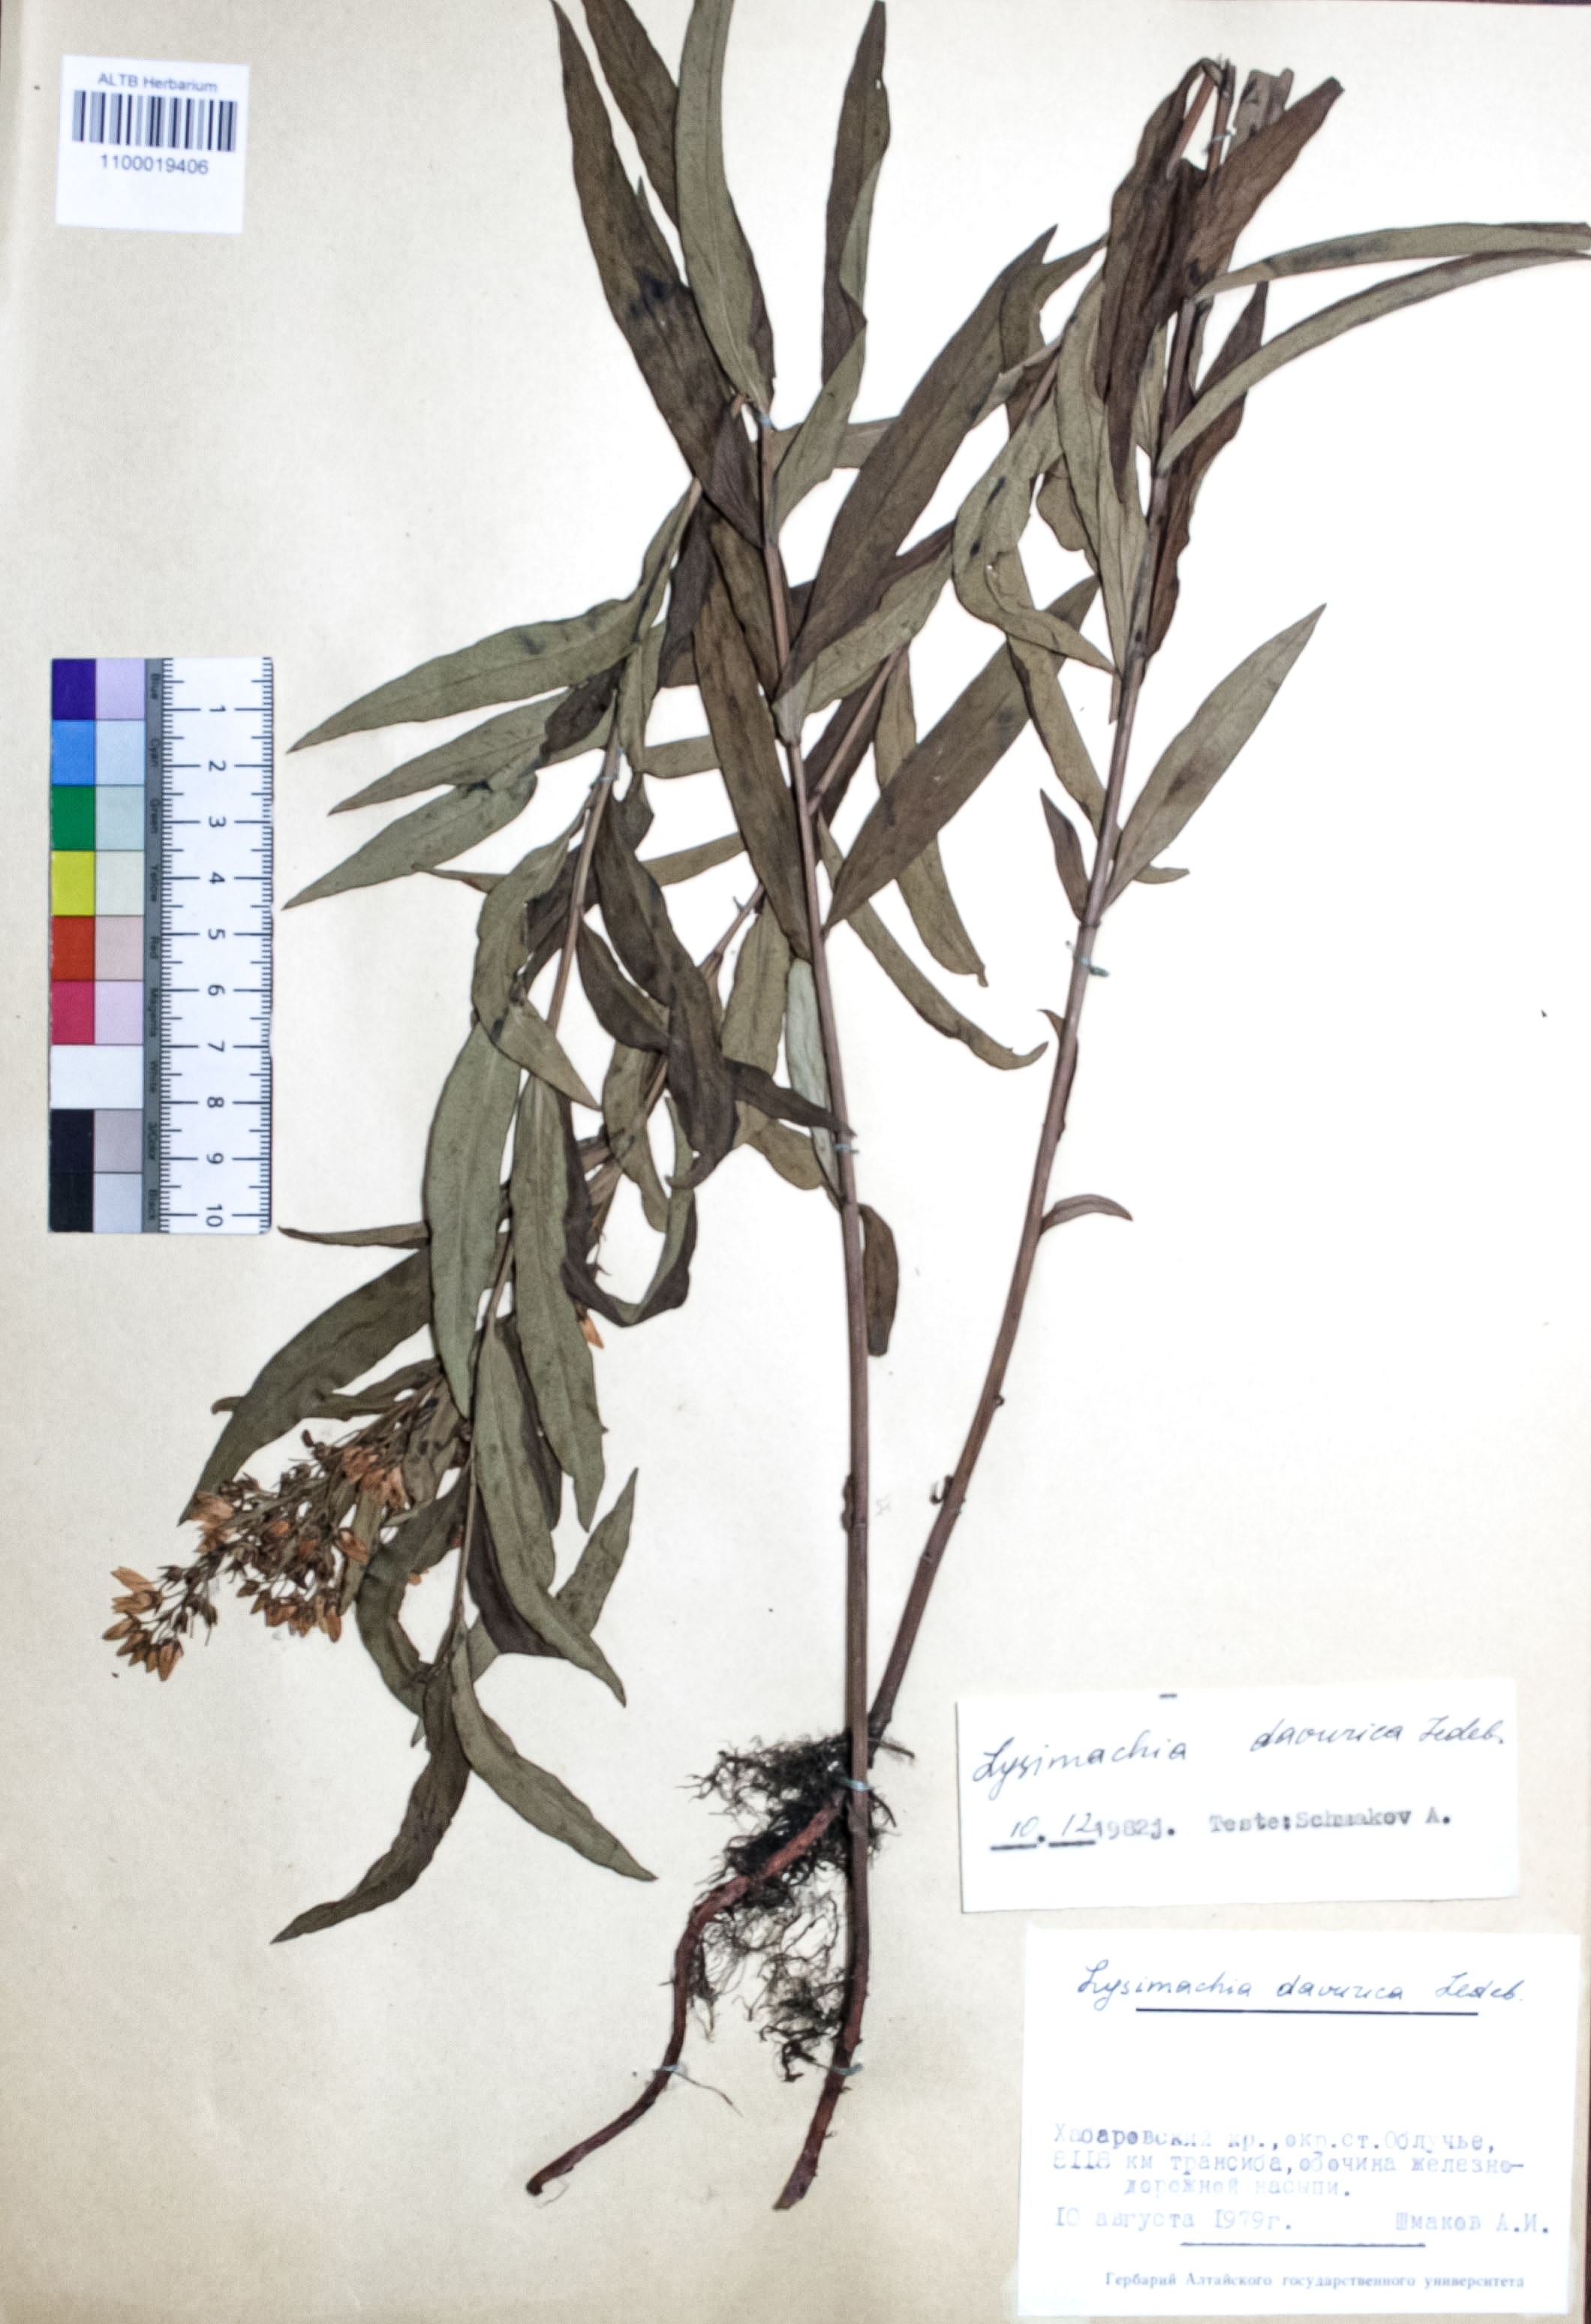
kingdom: Plantae
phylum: Tracheophyta
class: Magnoliopsida
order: Ericales
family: Primulaceae
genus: Lysimachia
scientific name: Lysimachia davurica
